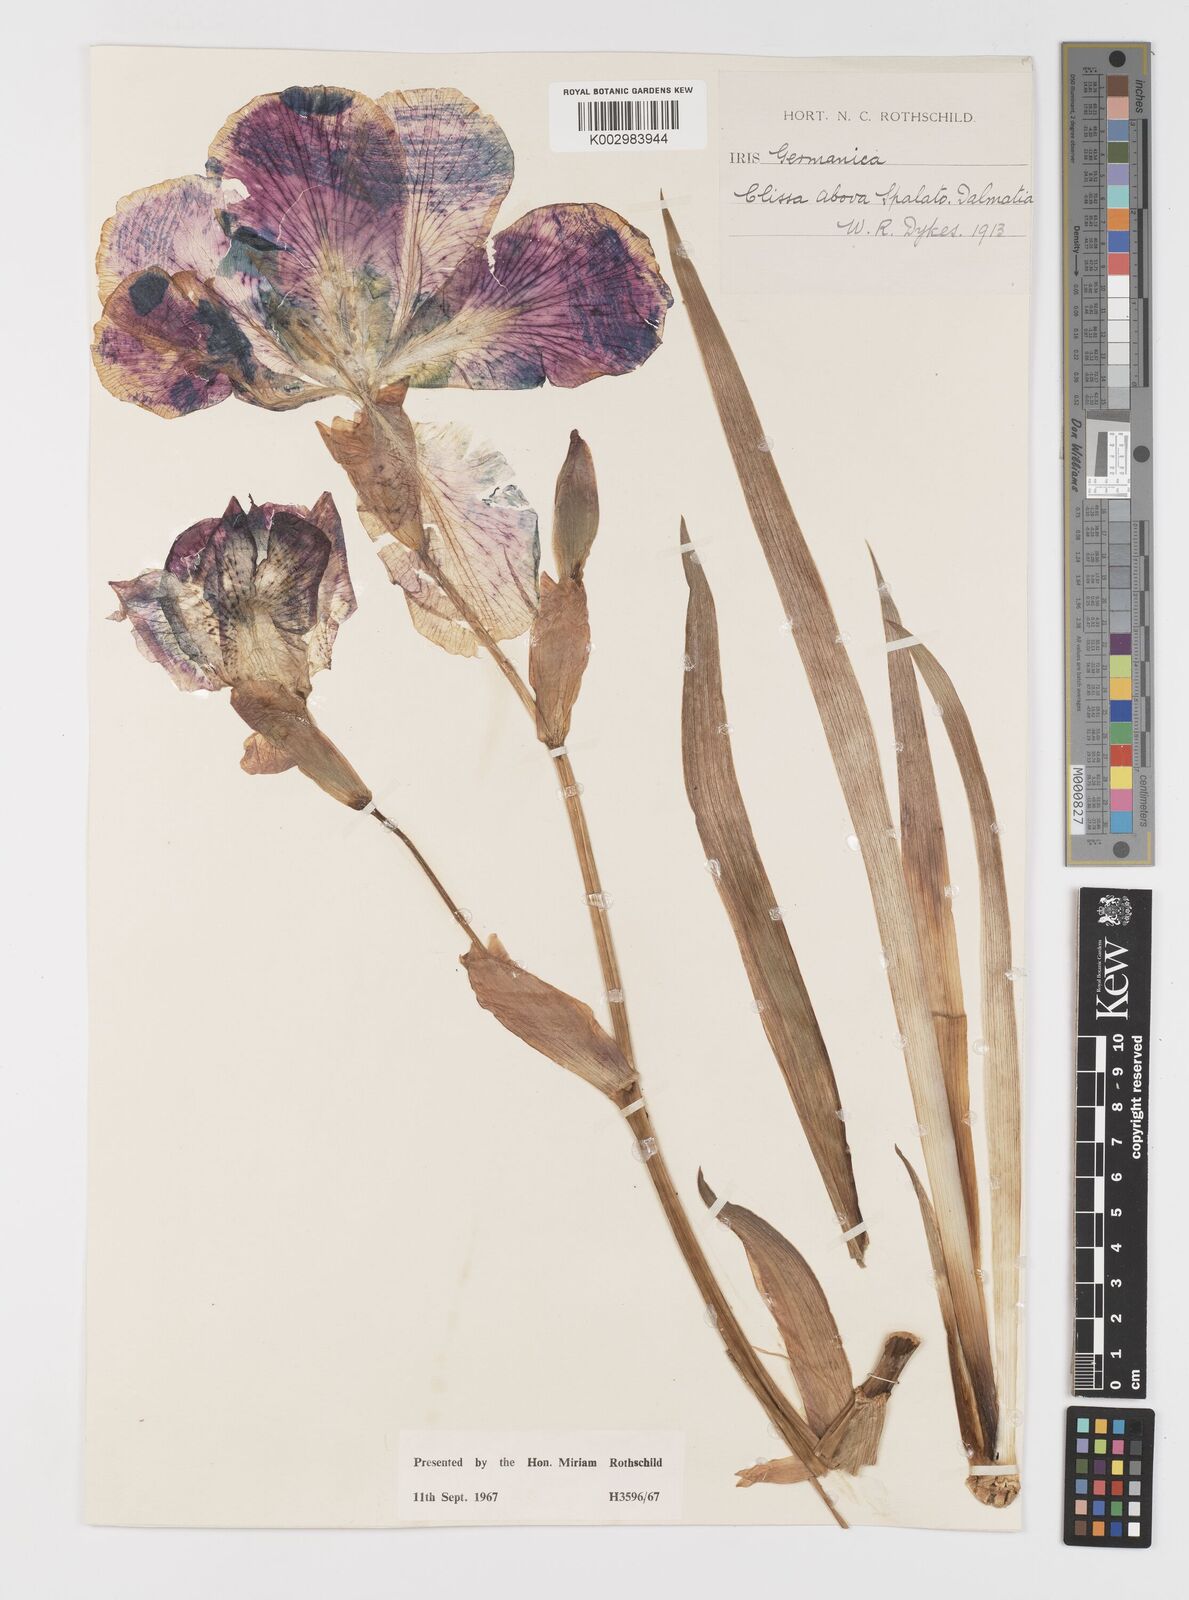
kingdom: Plantae
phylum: Tracheophyta
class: Liliopsida
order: Asparagales
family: Iridaceae
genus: Iris
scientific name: Iris germanica
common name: German iris
